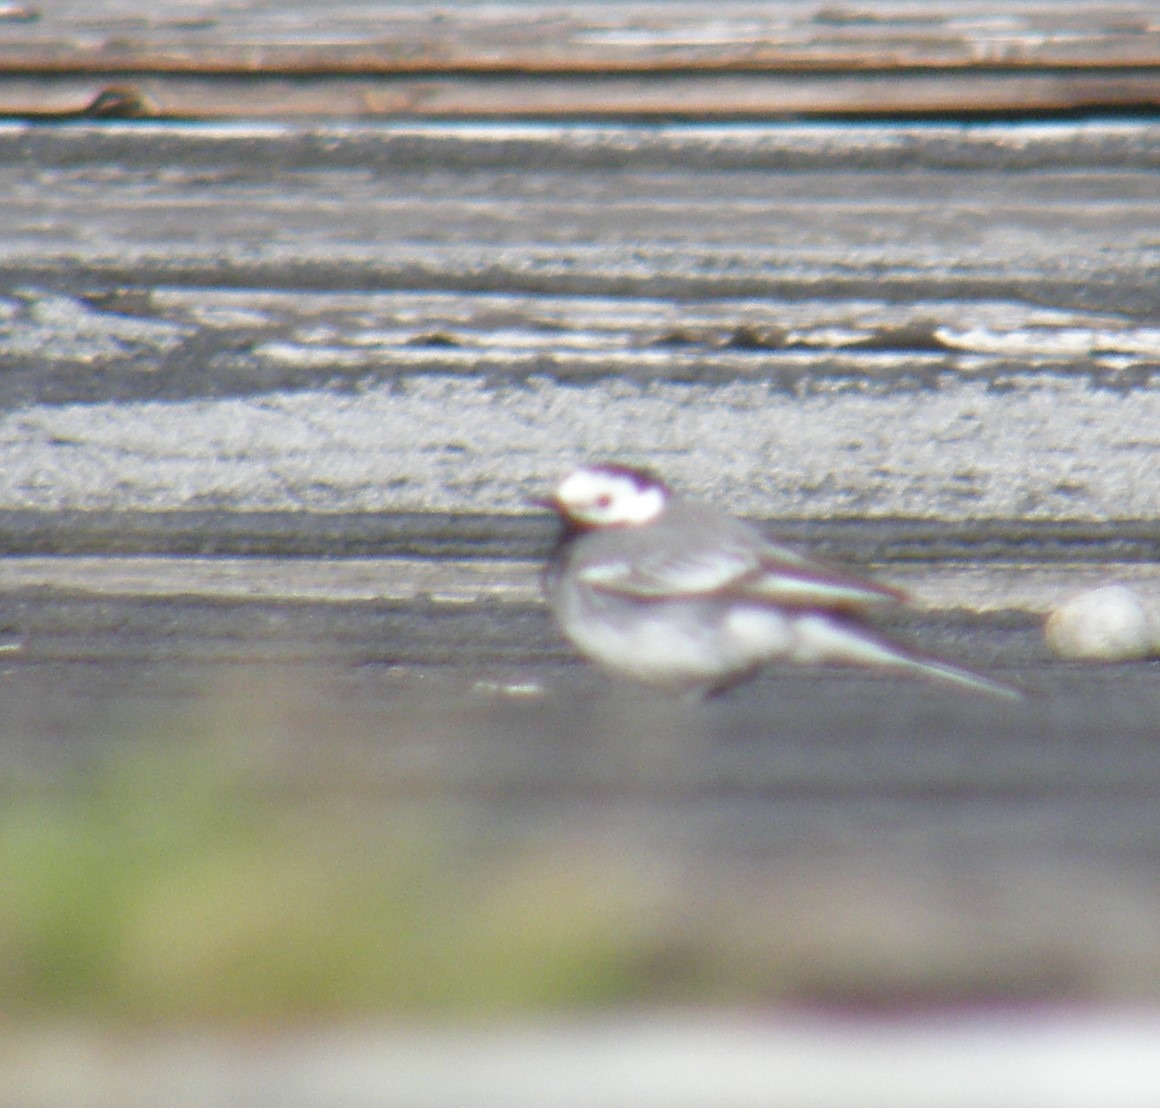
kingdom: Animalia
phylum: Chordata
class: Aves
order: Passeriformes
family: Motacillidae
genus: Motacilla
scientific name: Motacilla alba
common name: Hvid vipstjert
